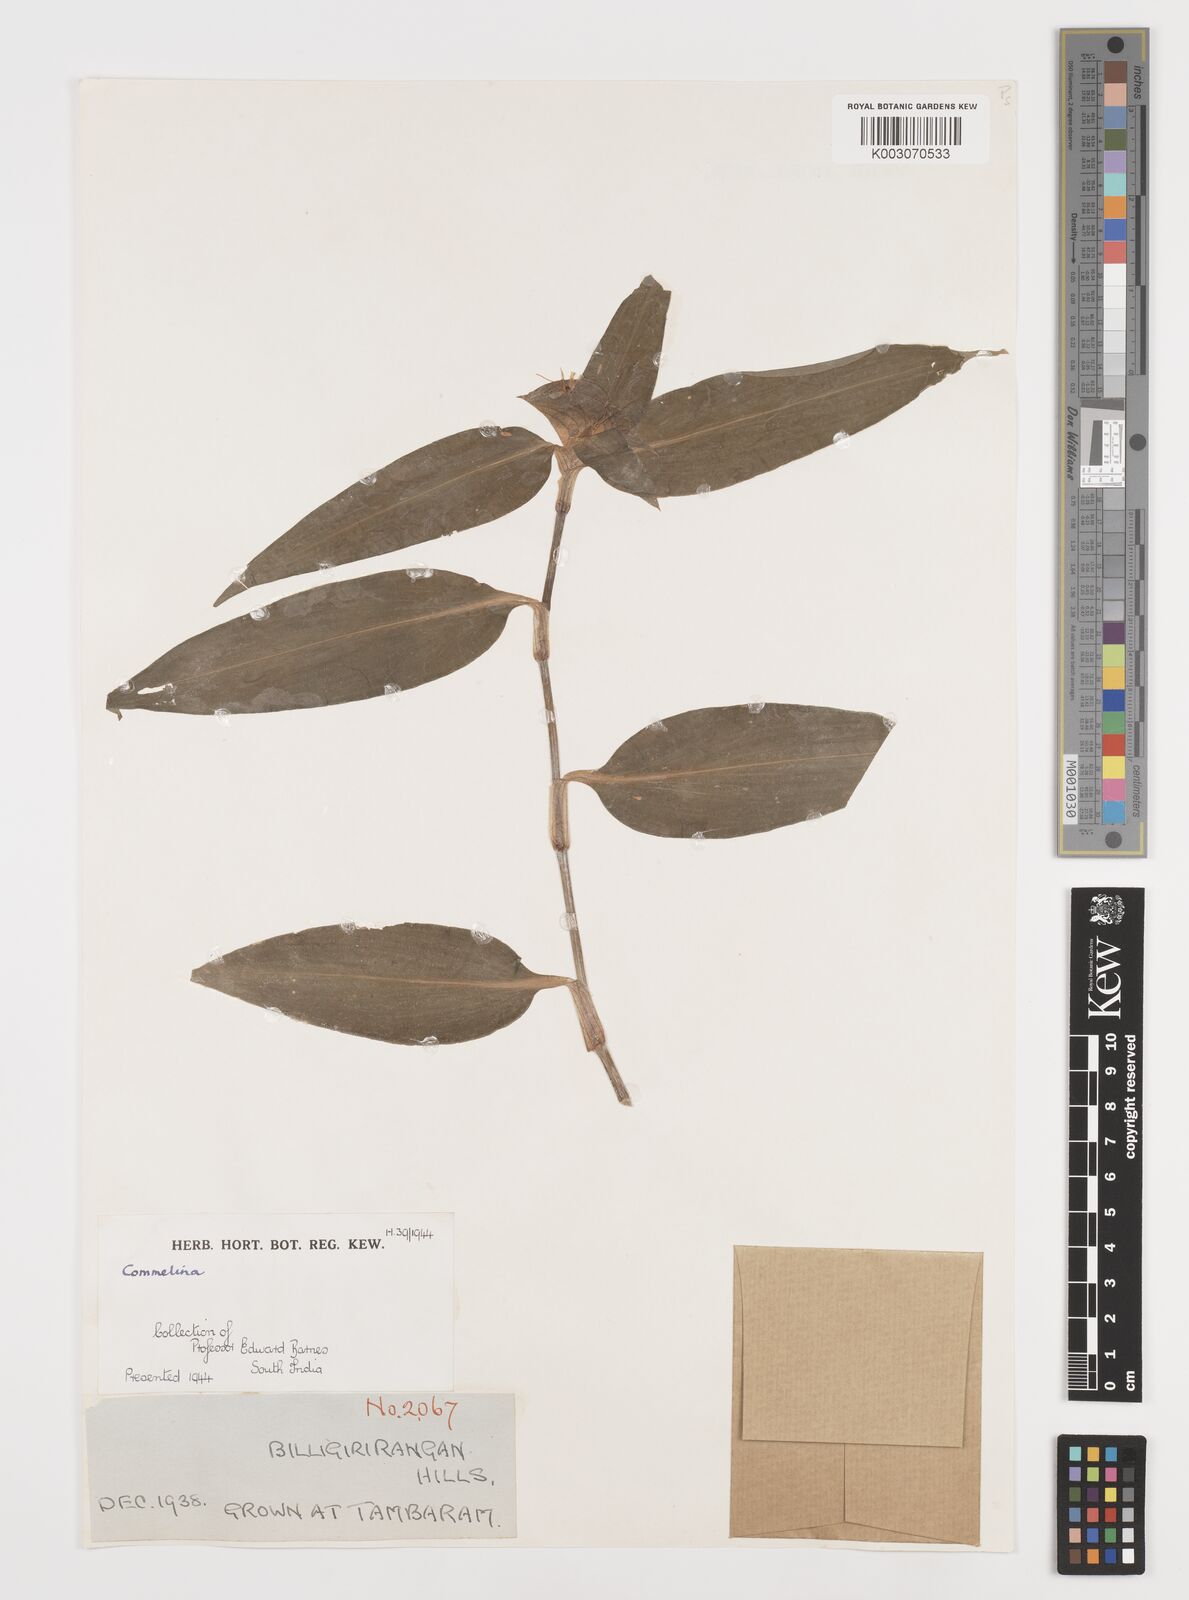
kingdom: Plantae
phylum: Tracheophyta
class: Liliopsida
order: Commelinales
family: Commelinaceae
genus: Commelina
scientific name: Commelina
